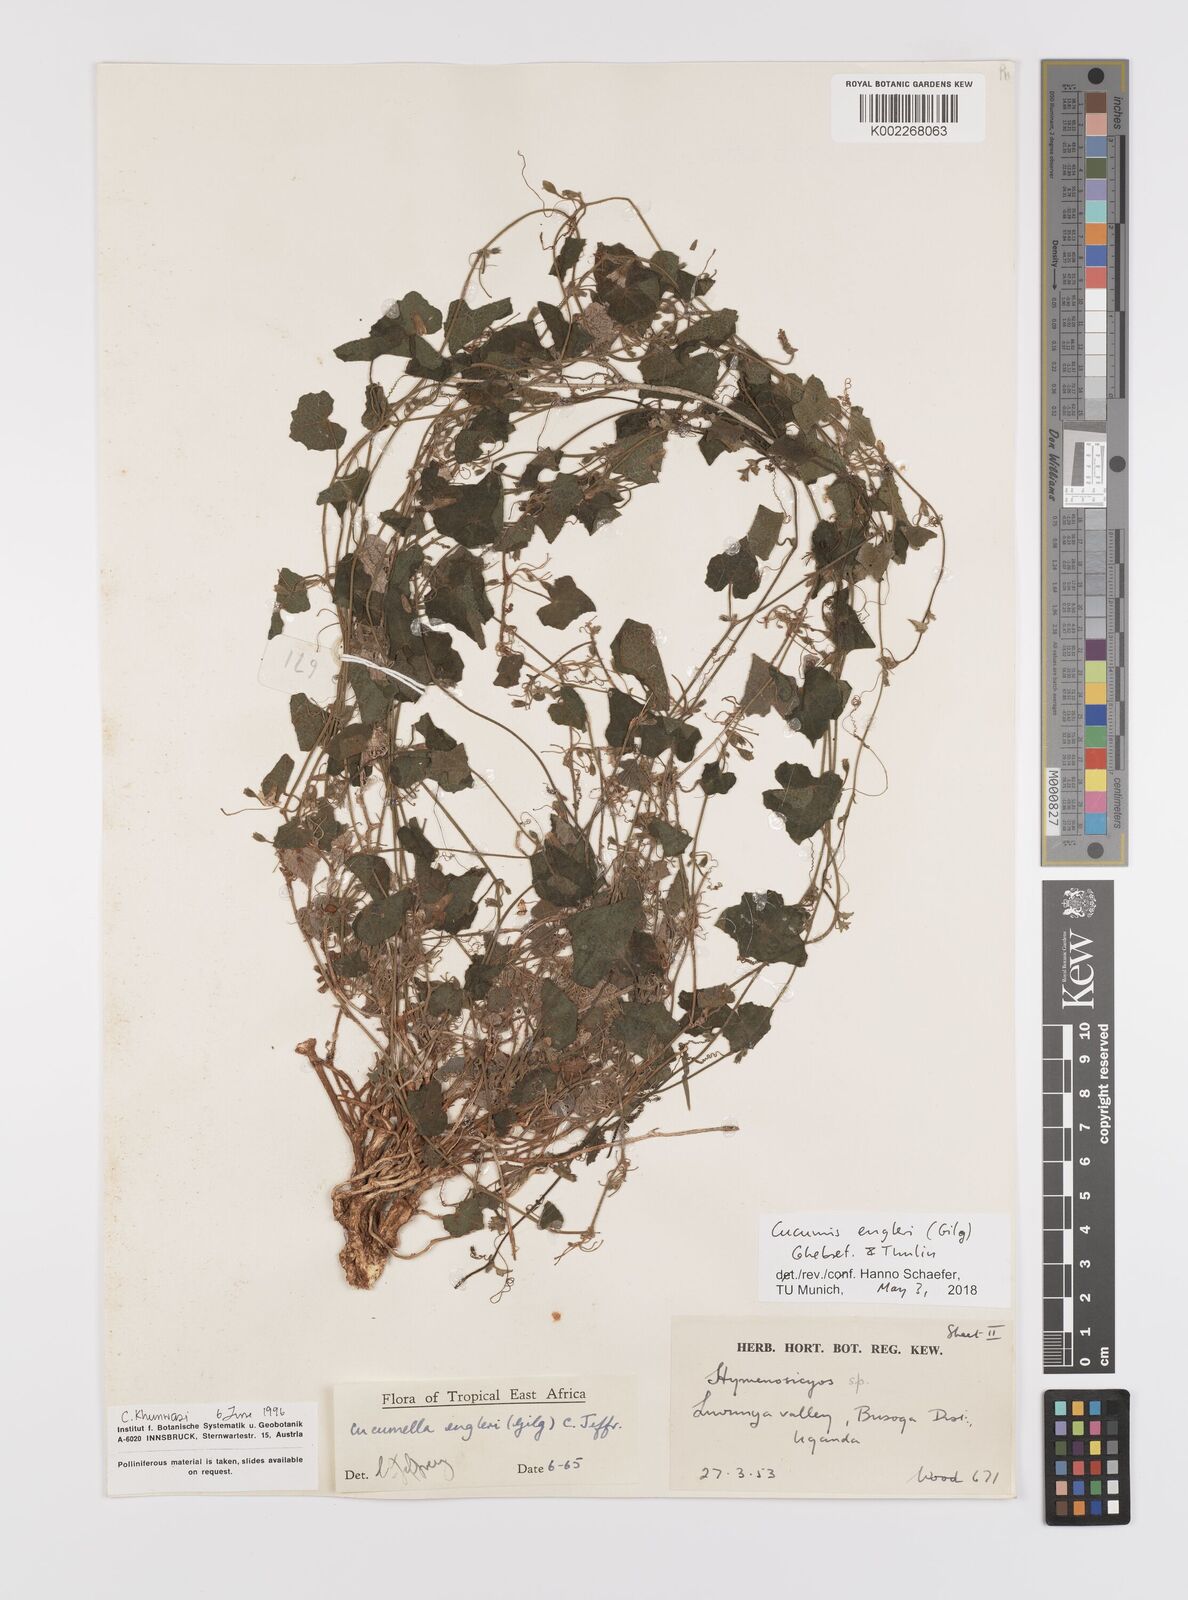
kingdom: Plantae
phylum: Tracheophyta
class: Magnoliopsida
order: Cucurbitales
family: Cucurbitaceae
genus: Cucumis
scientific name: Cucumis engleri
